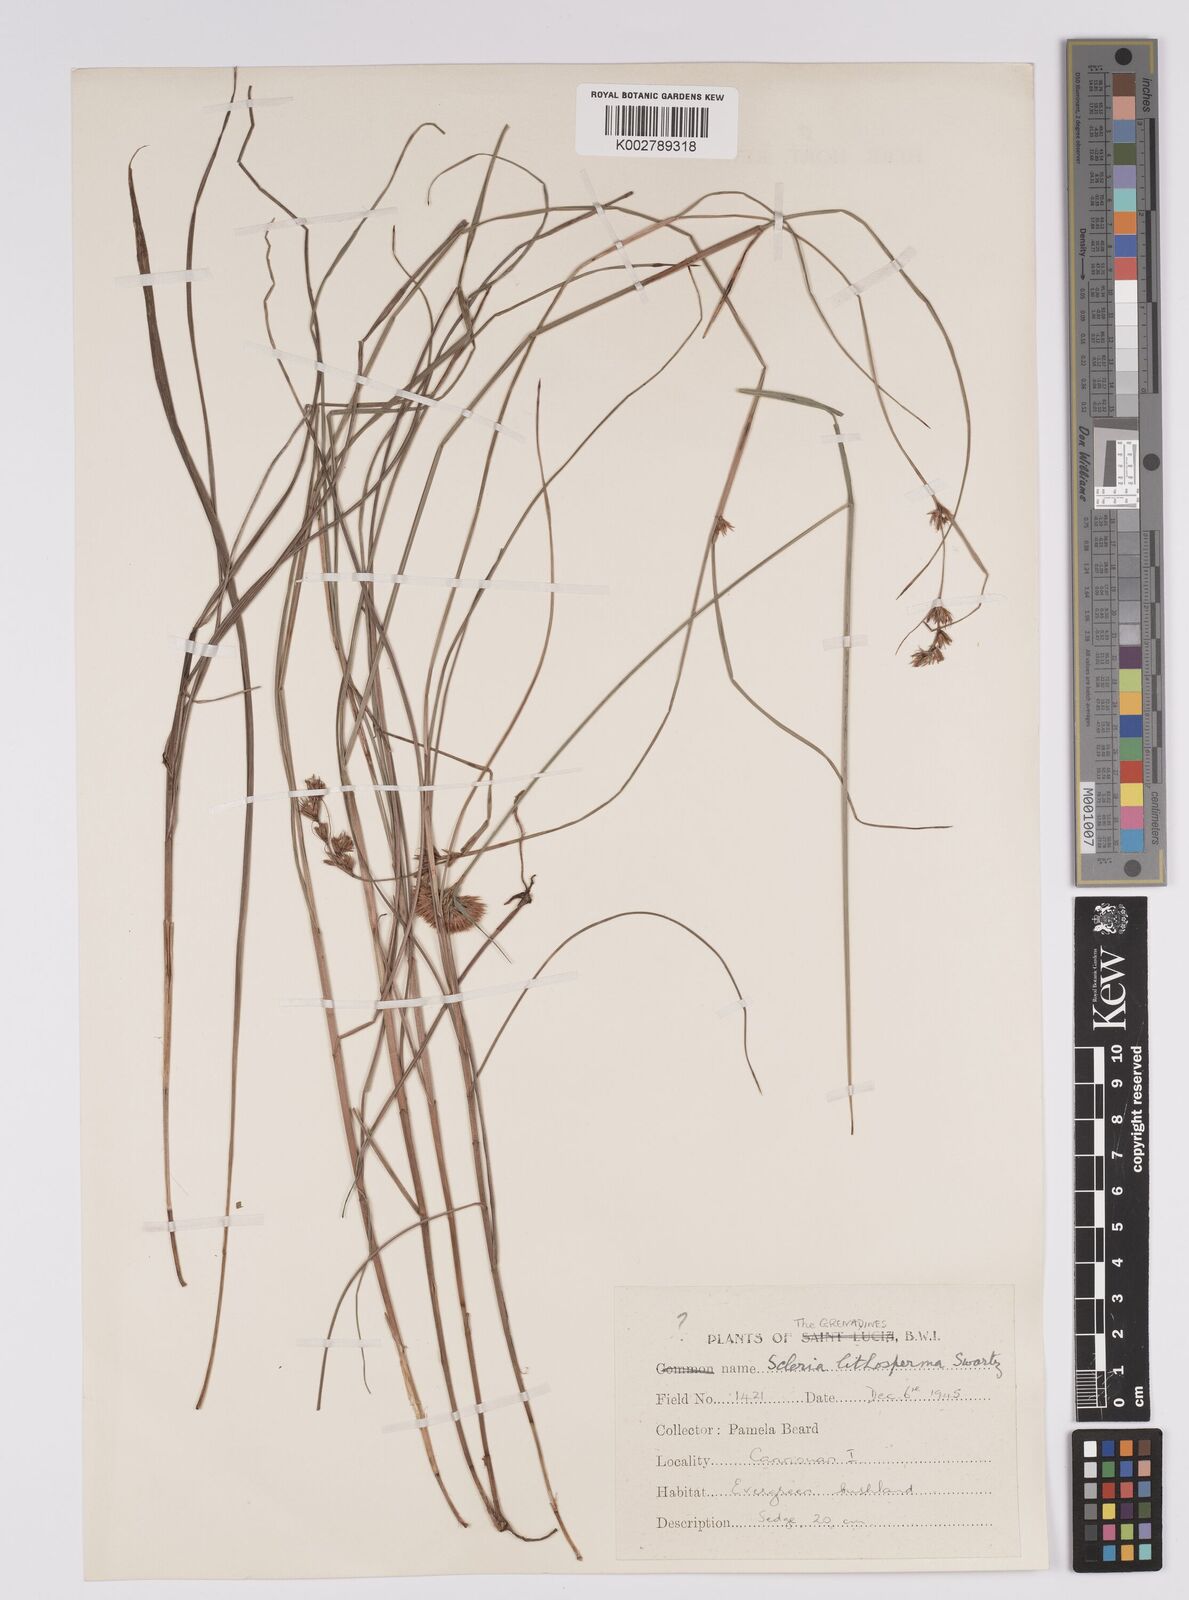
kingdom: Plantae
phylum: Tracheophyta
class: Liliopsida
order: Poales
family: Cyperaceae
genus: Scleria
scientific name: Scleria lithosperma
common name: Florida keys nut-rush
